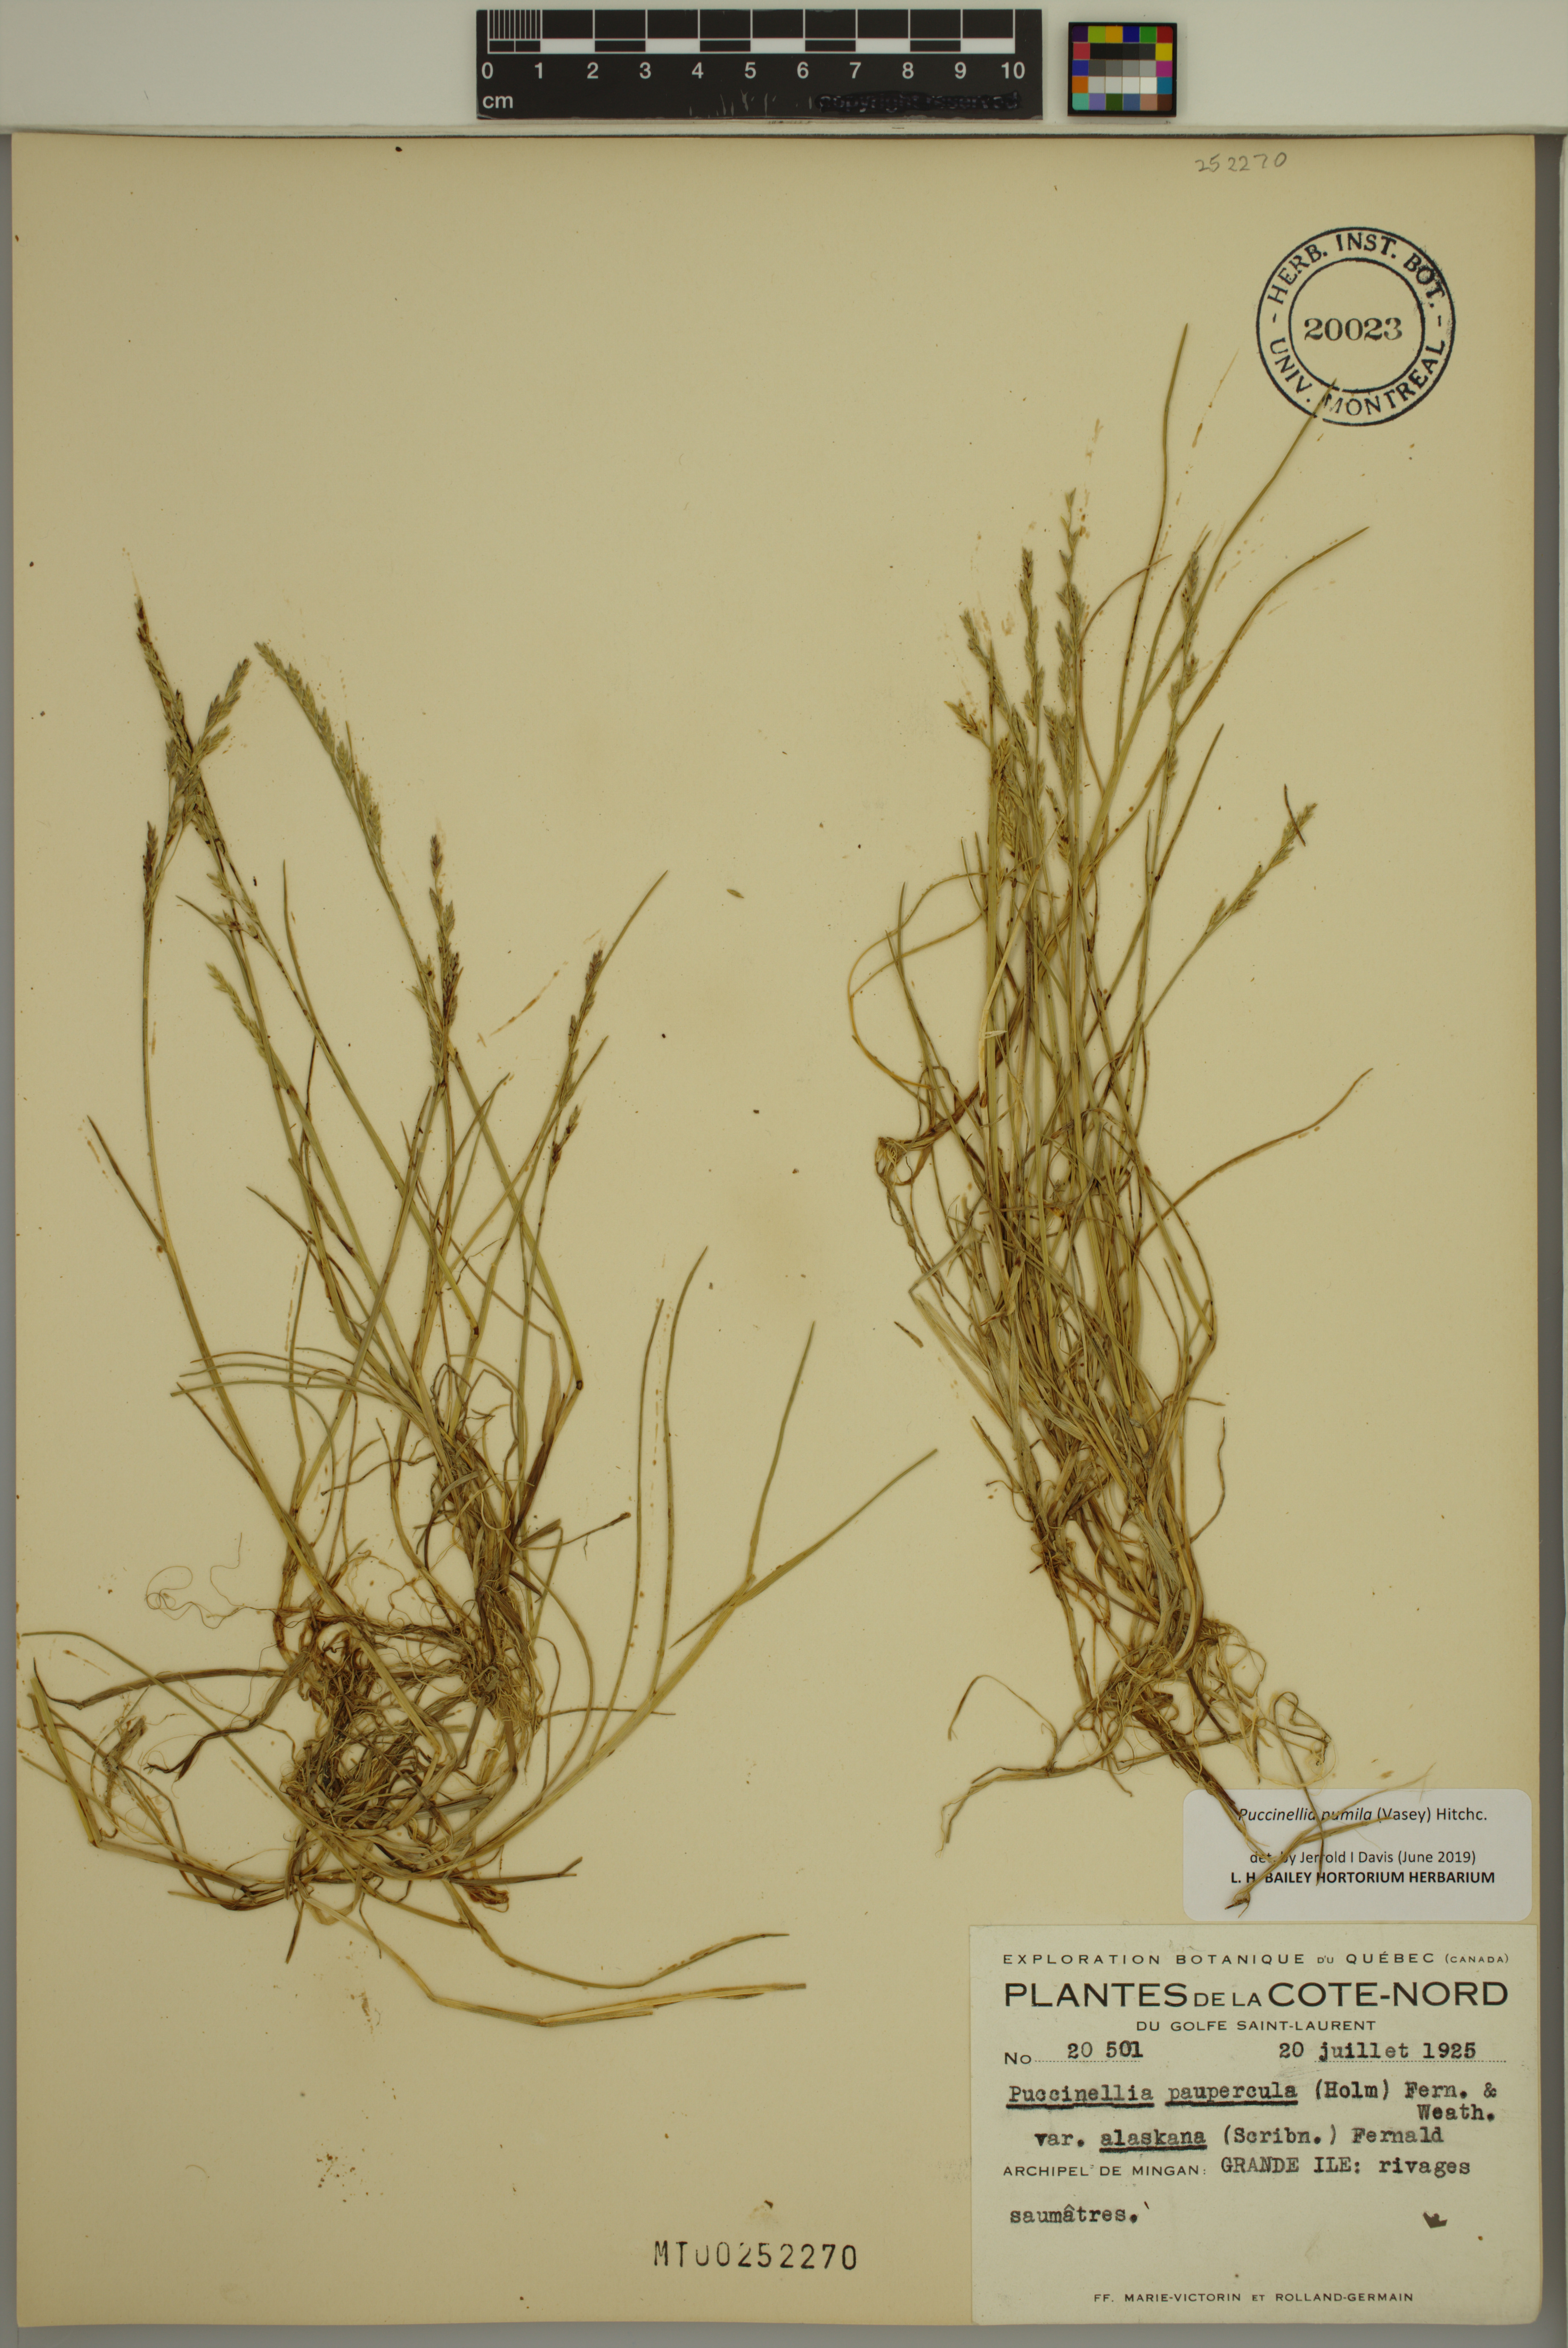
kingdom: Plantae
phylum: Tracheophyta
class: Liliopsida
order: Poales
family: Poaceae
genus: Puccinellia
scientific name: Puccinellia pumila
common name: Dwarf alkaligrass
